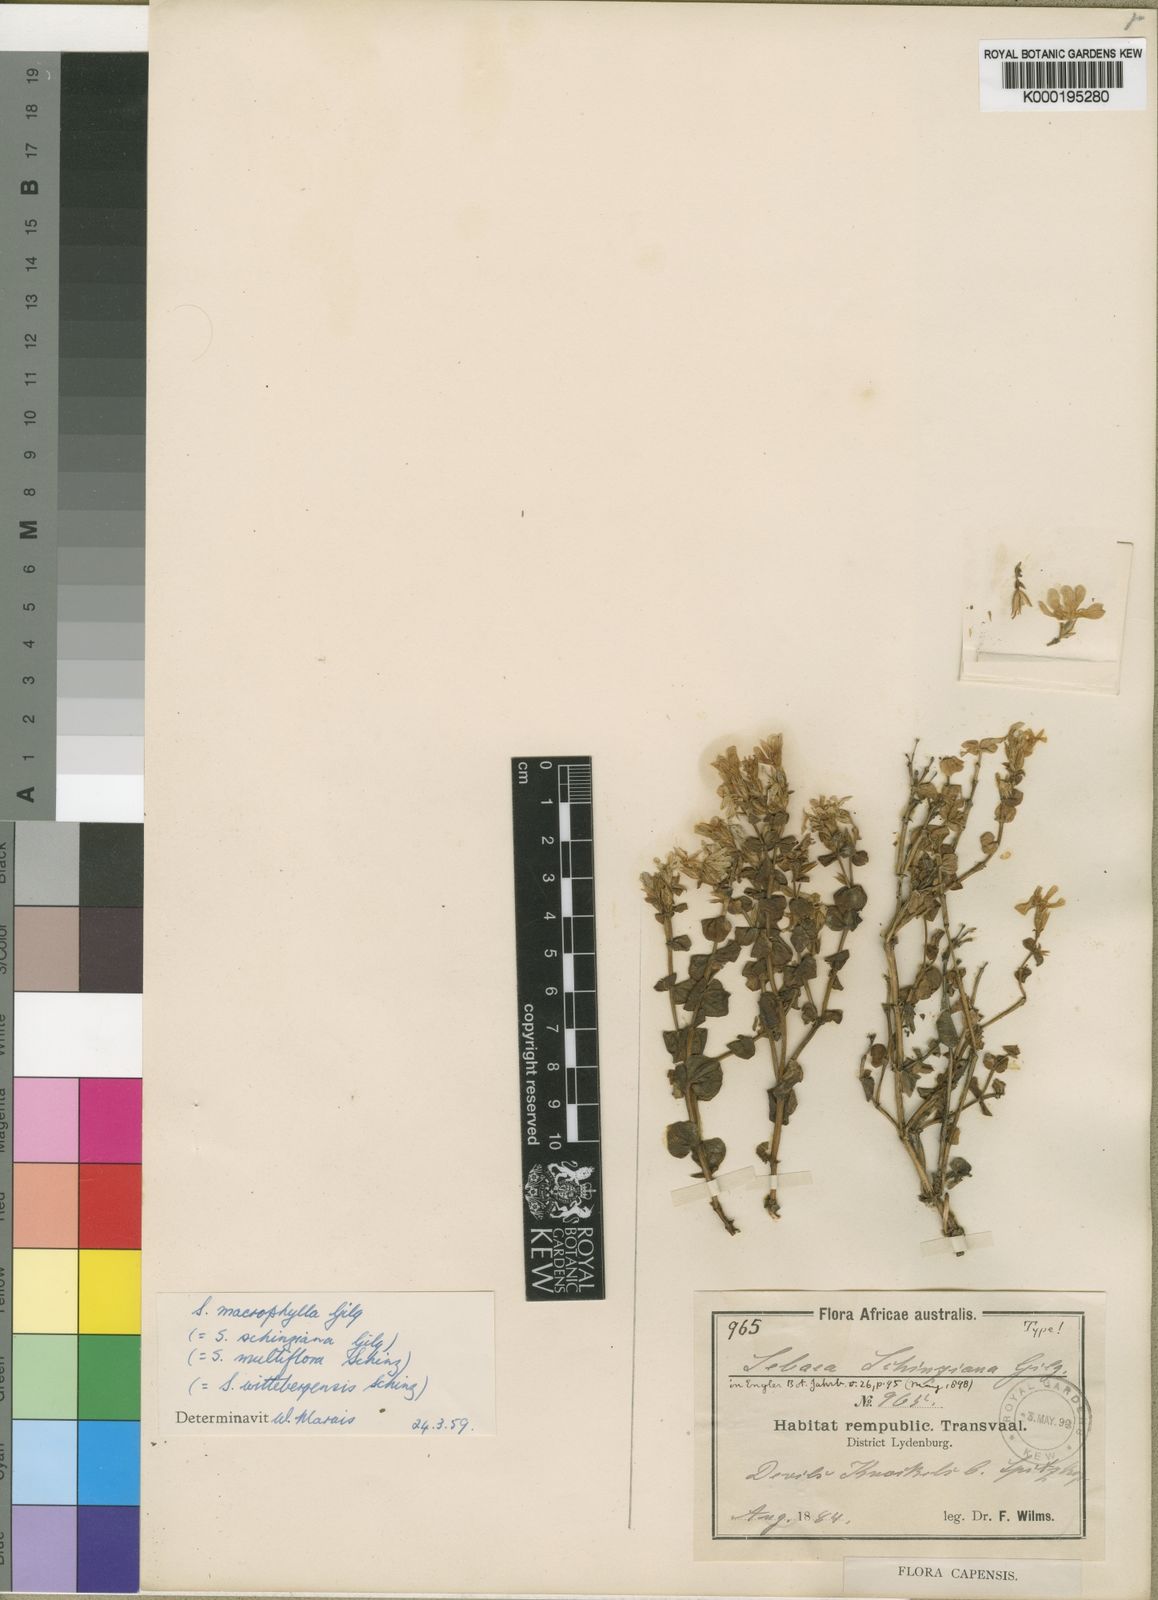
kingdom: Plantae
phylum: Tracheophyta
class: Magnoliopsida
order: Gentianales
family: Gentianaceae
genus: Sebaea
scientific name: Sebaea macrophylla
